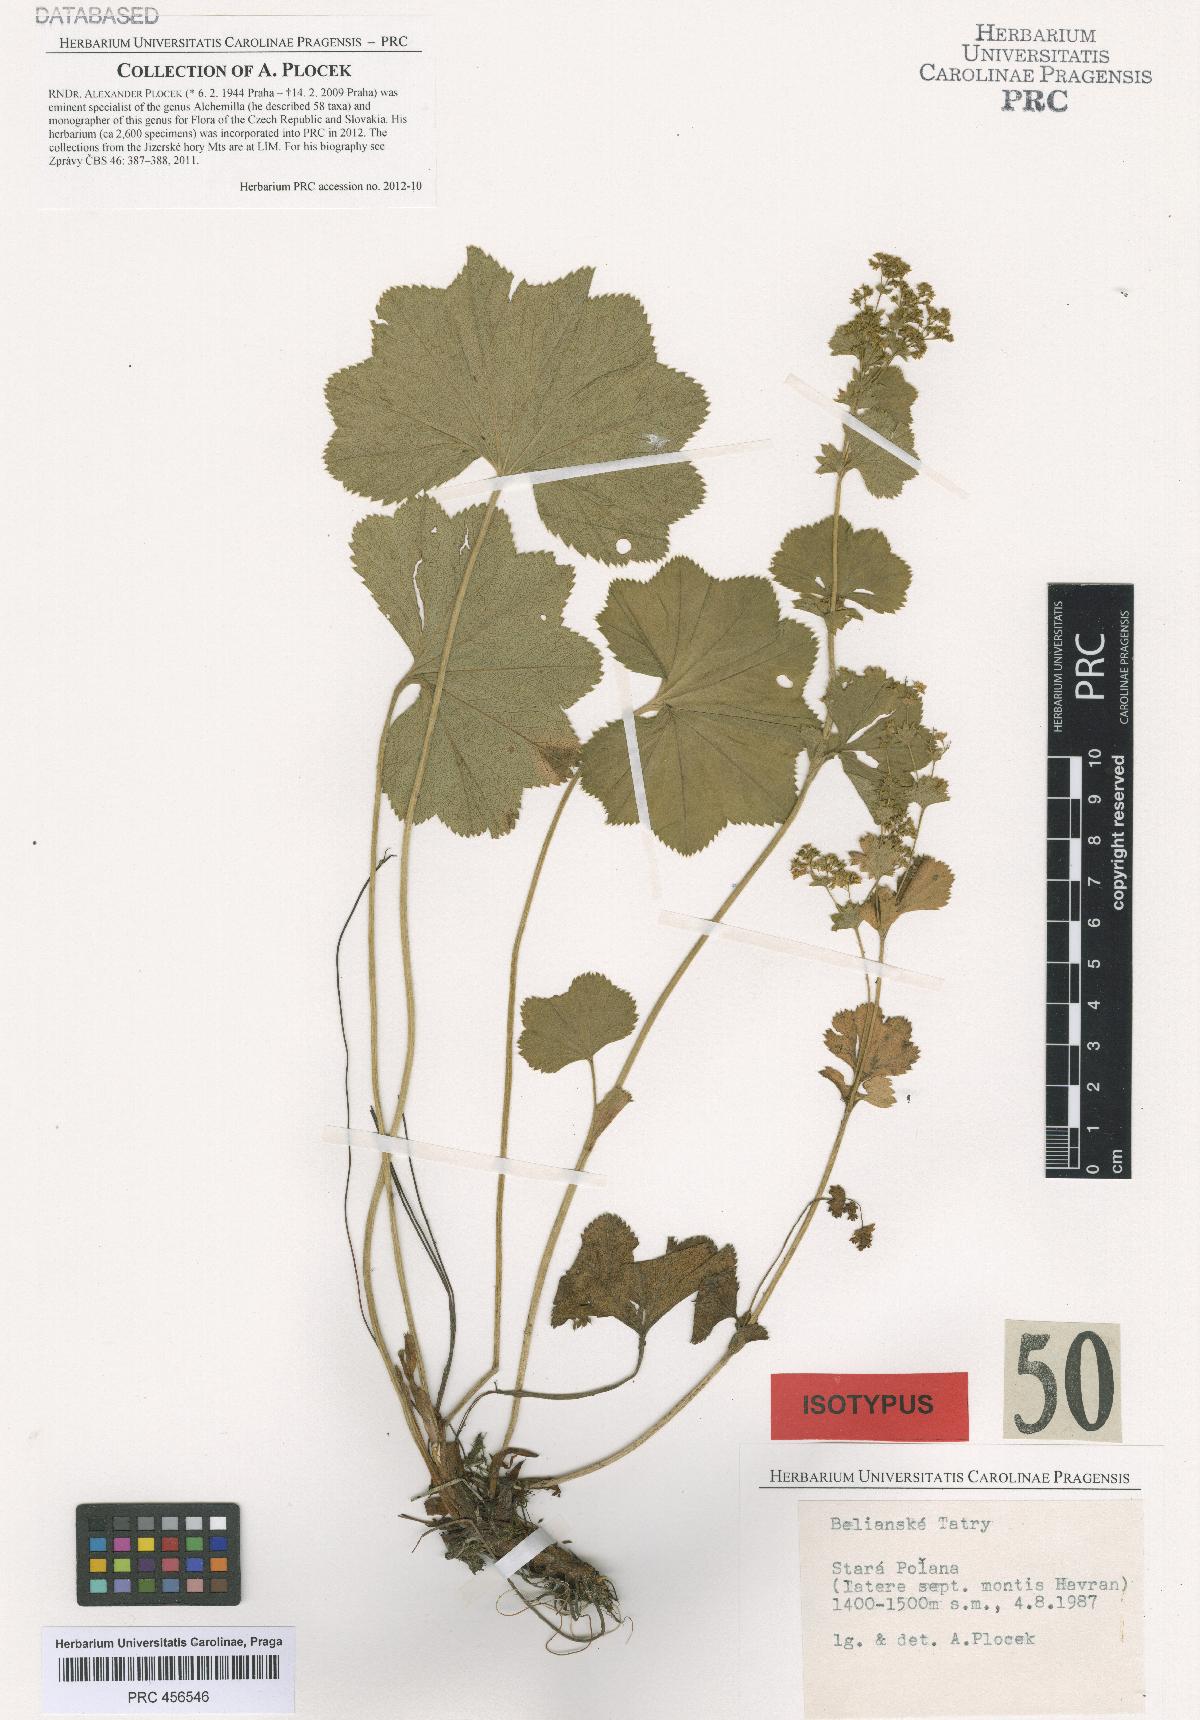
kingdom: Plantae
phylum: Tracheophyta
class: Magnoliopsida
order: Rosales
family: Rosaceae
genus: Alchemilla
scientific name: Alchemilla amauroptera
